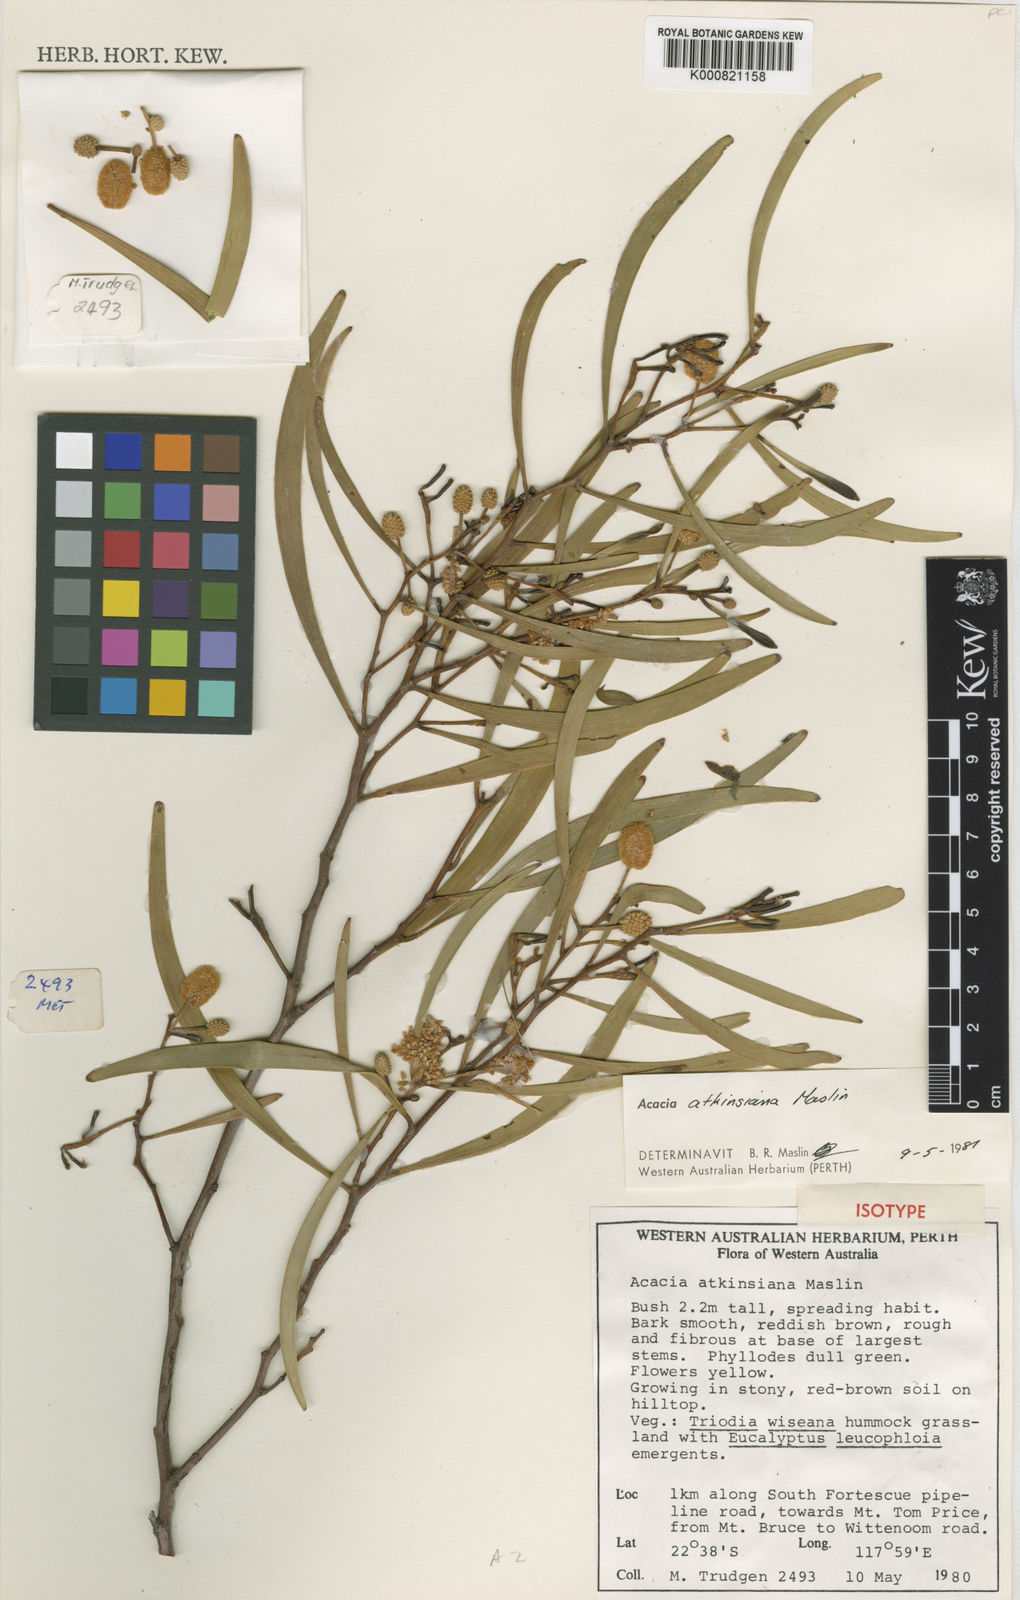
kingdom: Plantae
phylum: Tracheophyta
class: Magnoliopsida
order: Fabales
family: Fabaceae
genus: Acacia
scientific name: Acacia atkinsiana
